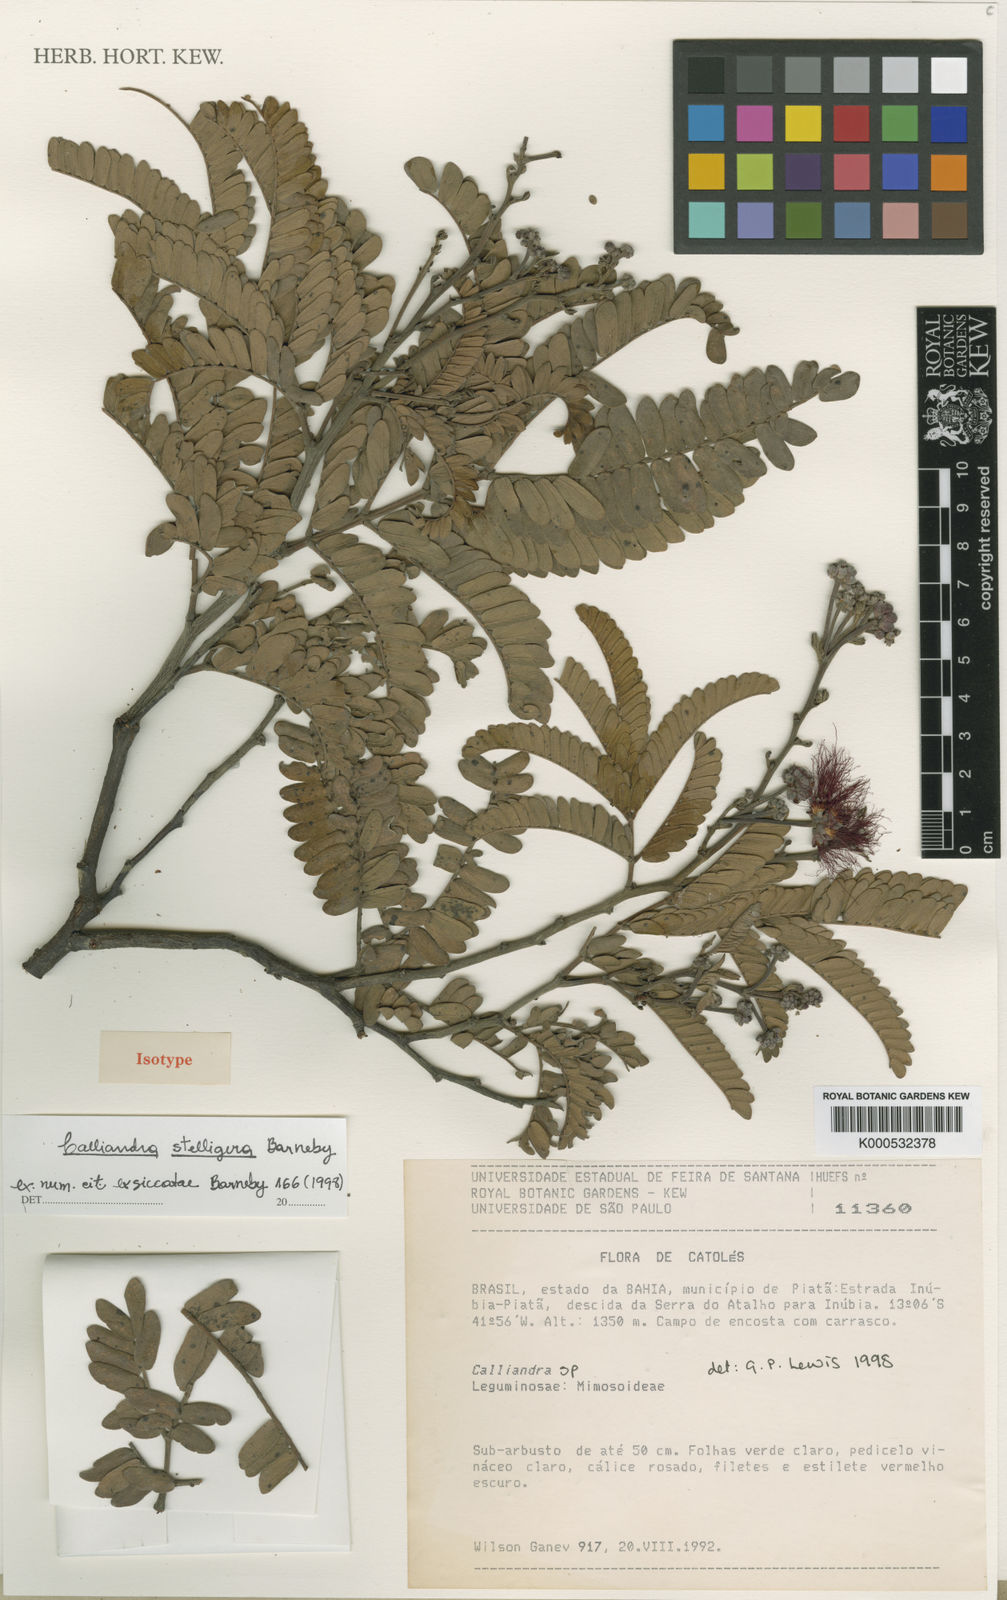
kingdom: Plantae
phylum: Tracheophyta
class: Magnoliopsida
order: Fabales
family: Fabaceae
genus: Calliandra
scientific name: Calliandra stelligera
